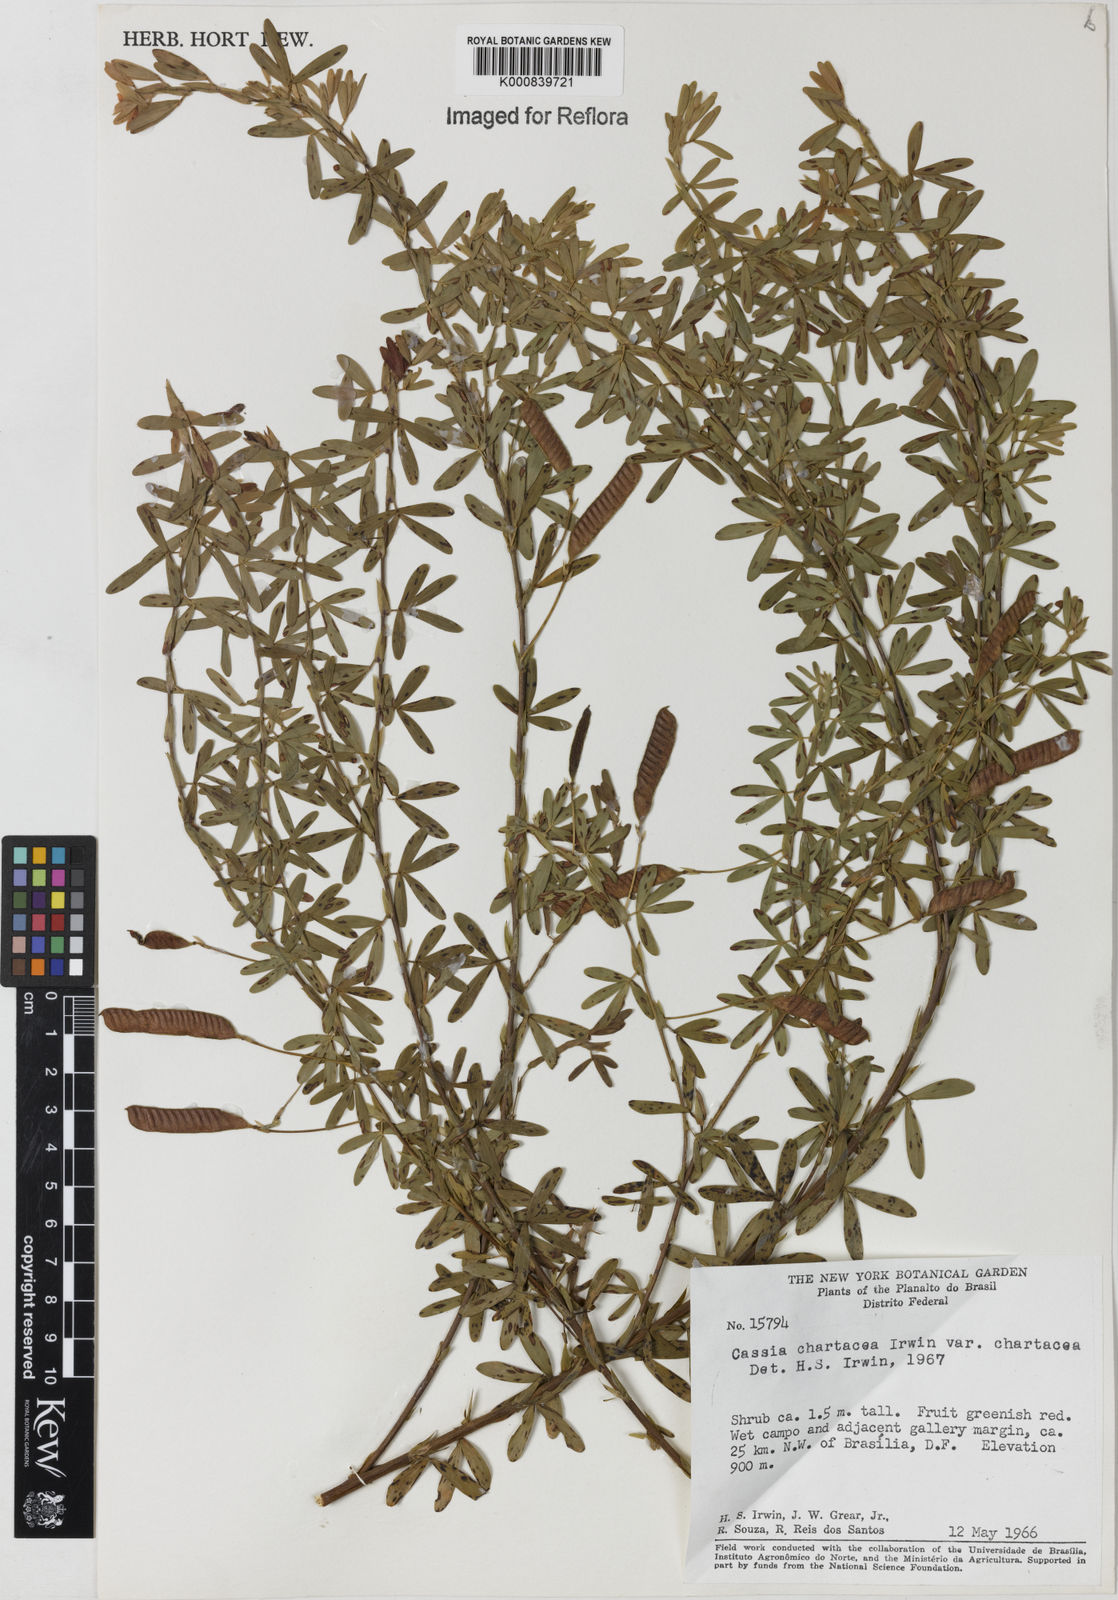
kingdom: Plantae
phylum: Tracheophyta
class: Magnoliopsida
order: Fabales
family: Fabaceae
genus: Chamaecrista
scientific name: Chamaecrista langsdorffii
